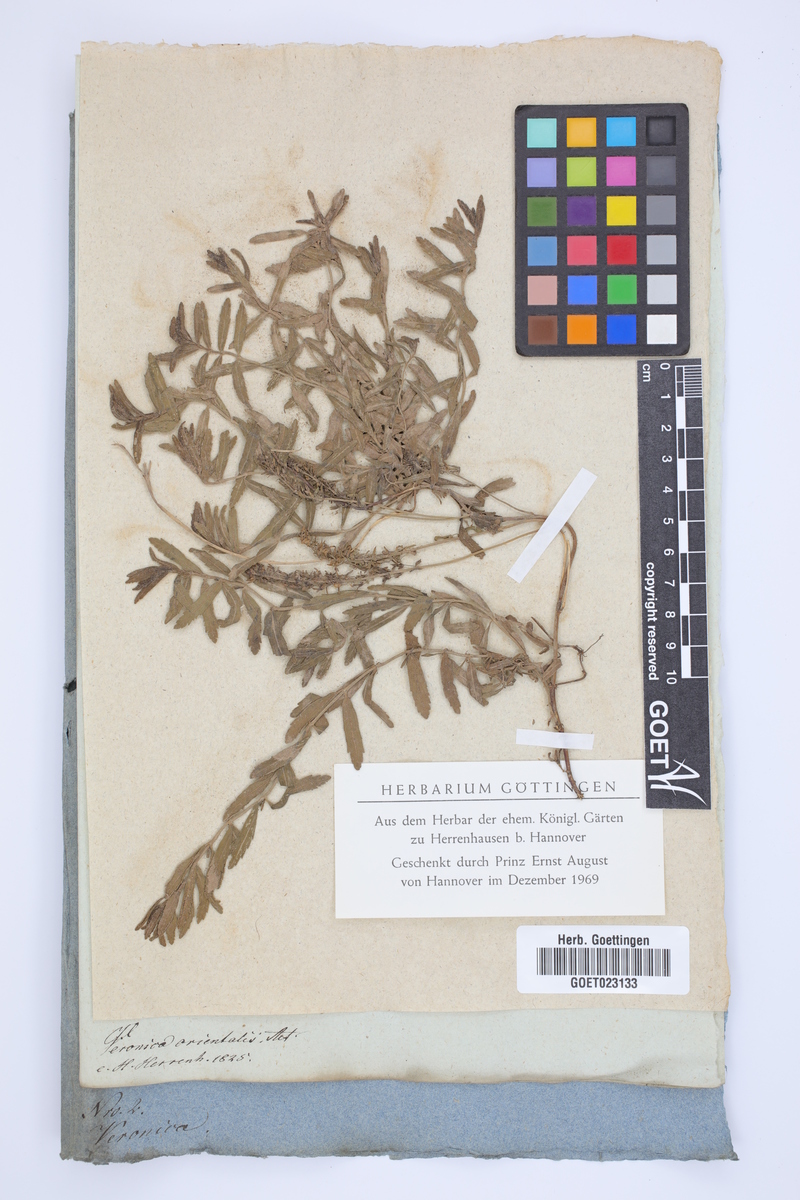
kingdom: Plantae
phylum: Tracheophyta
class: Magnoliopsida
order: Lamiales
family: Plantaginaceae
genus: Veronica
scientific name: Veronica orientalis
